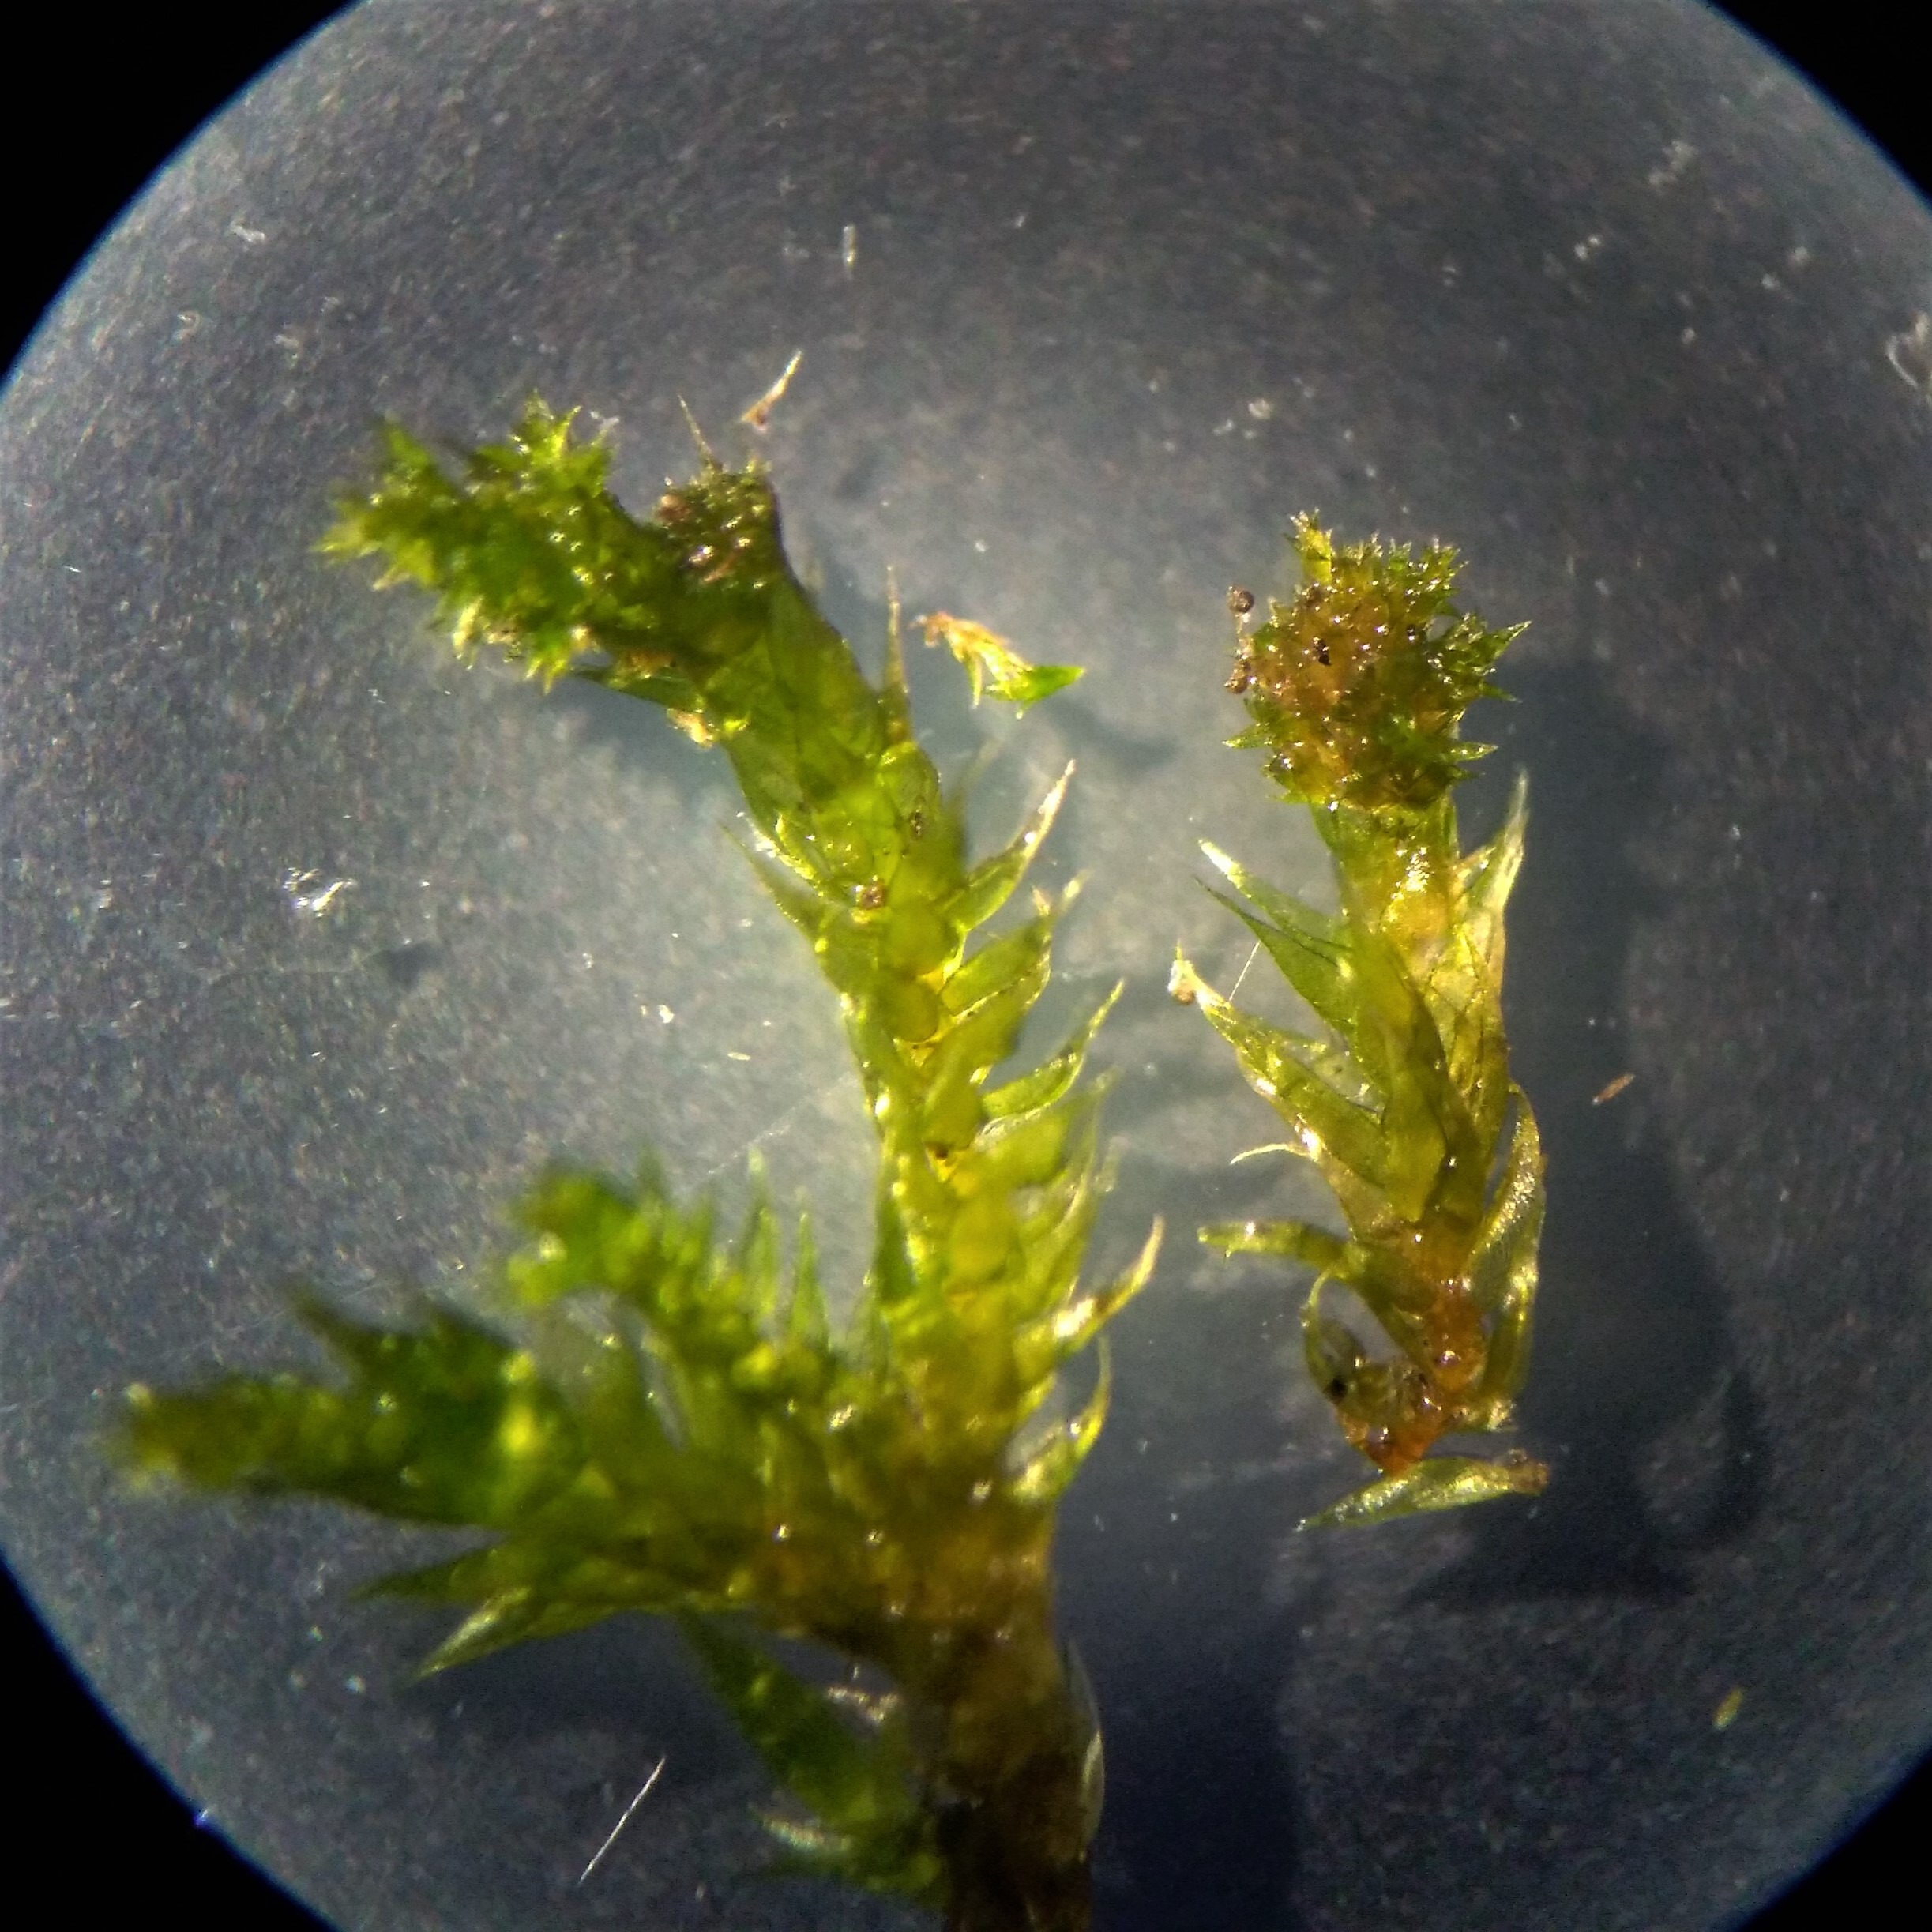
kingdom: Plantae
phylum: Bryophyta
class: Bryopsida
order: Hypnales
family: Pylaisiadelphaceae
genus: Platygyrium
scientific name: Platygyrium repens
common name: Mørk yngleknop
